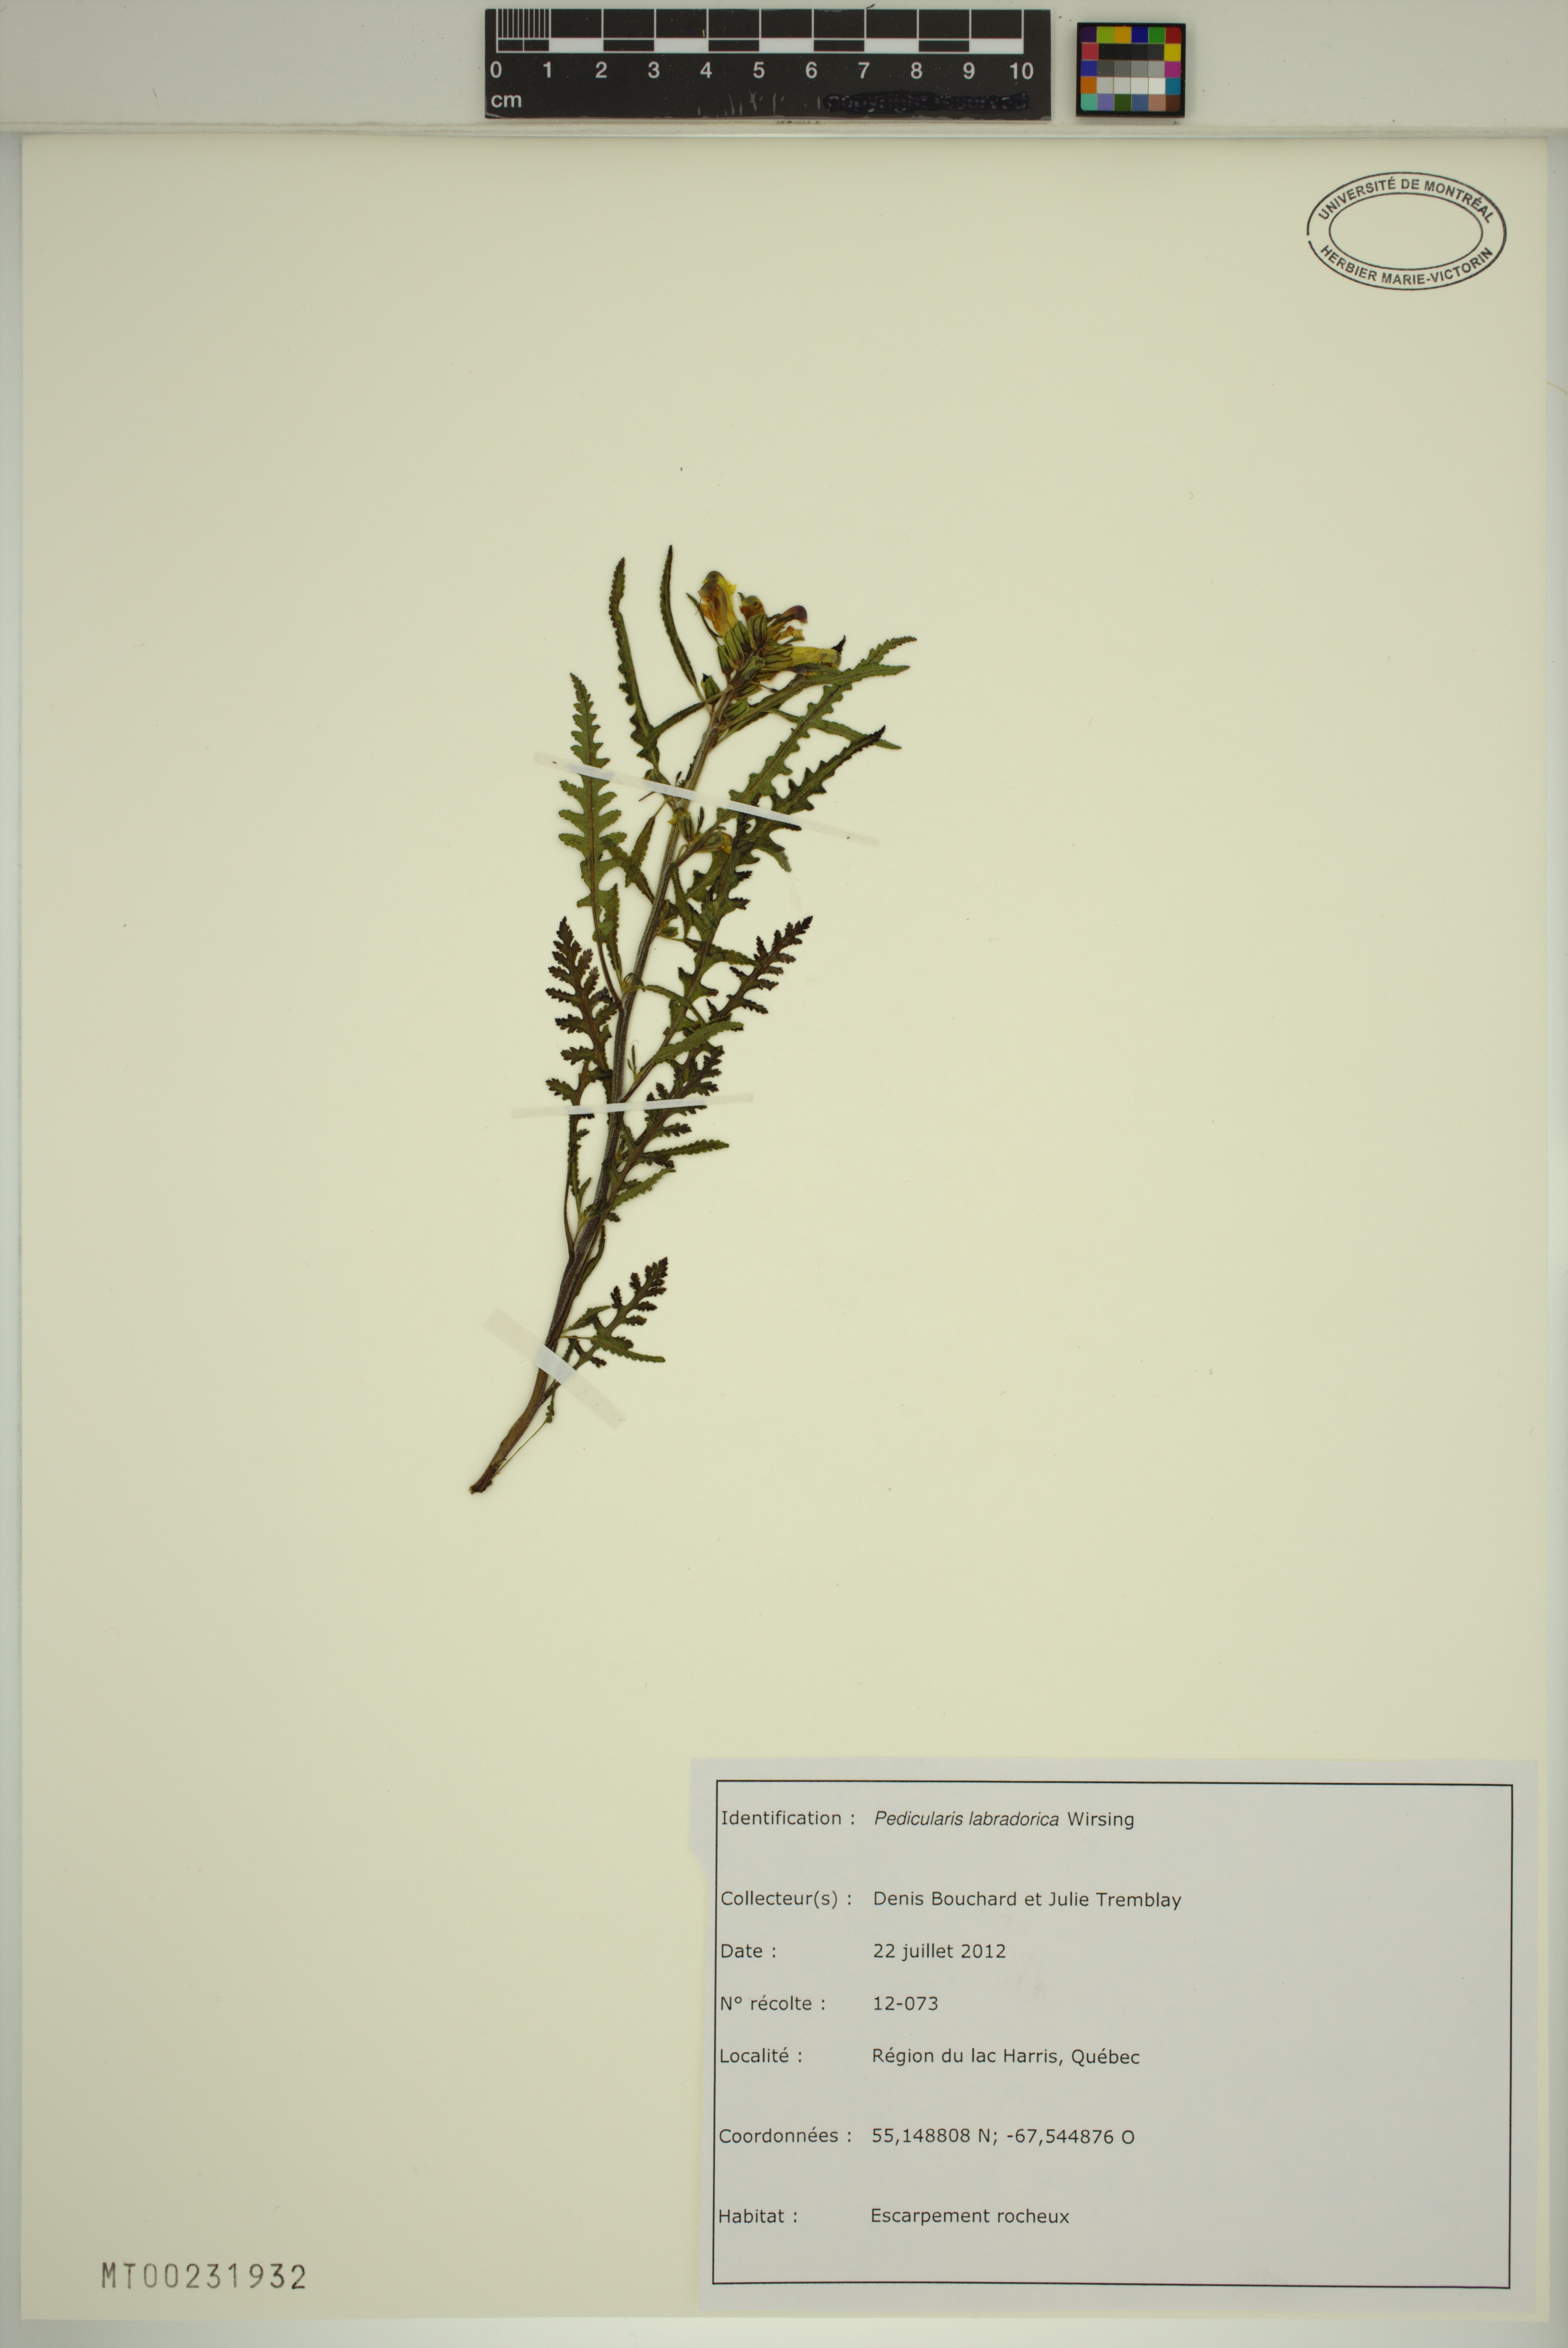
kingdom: Plantae
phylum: Tracheophyta
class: Magnoliopsida
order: Lamiales
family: Orobanchaceae
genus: Pedicularis
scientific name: Pedicularis labradorica
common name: Labrador lousewort
